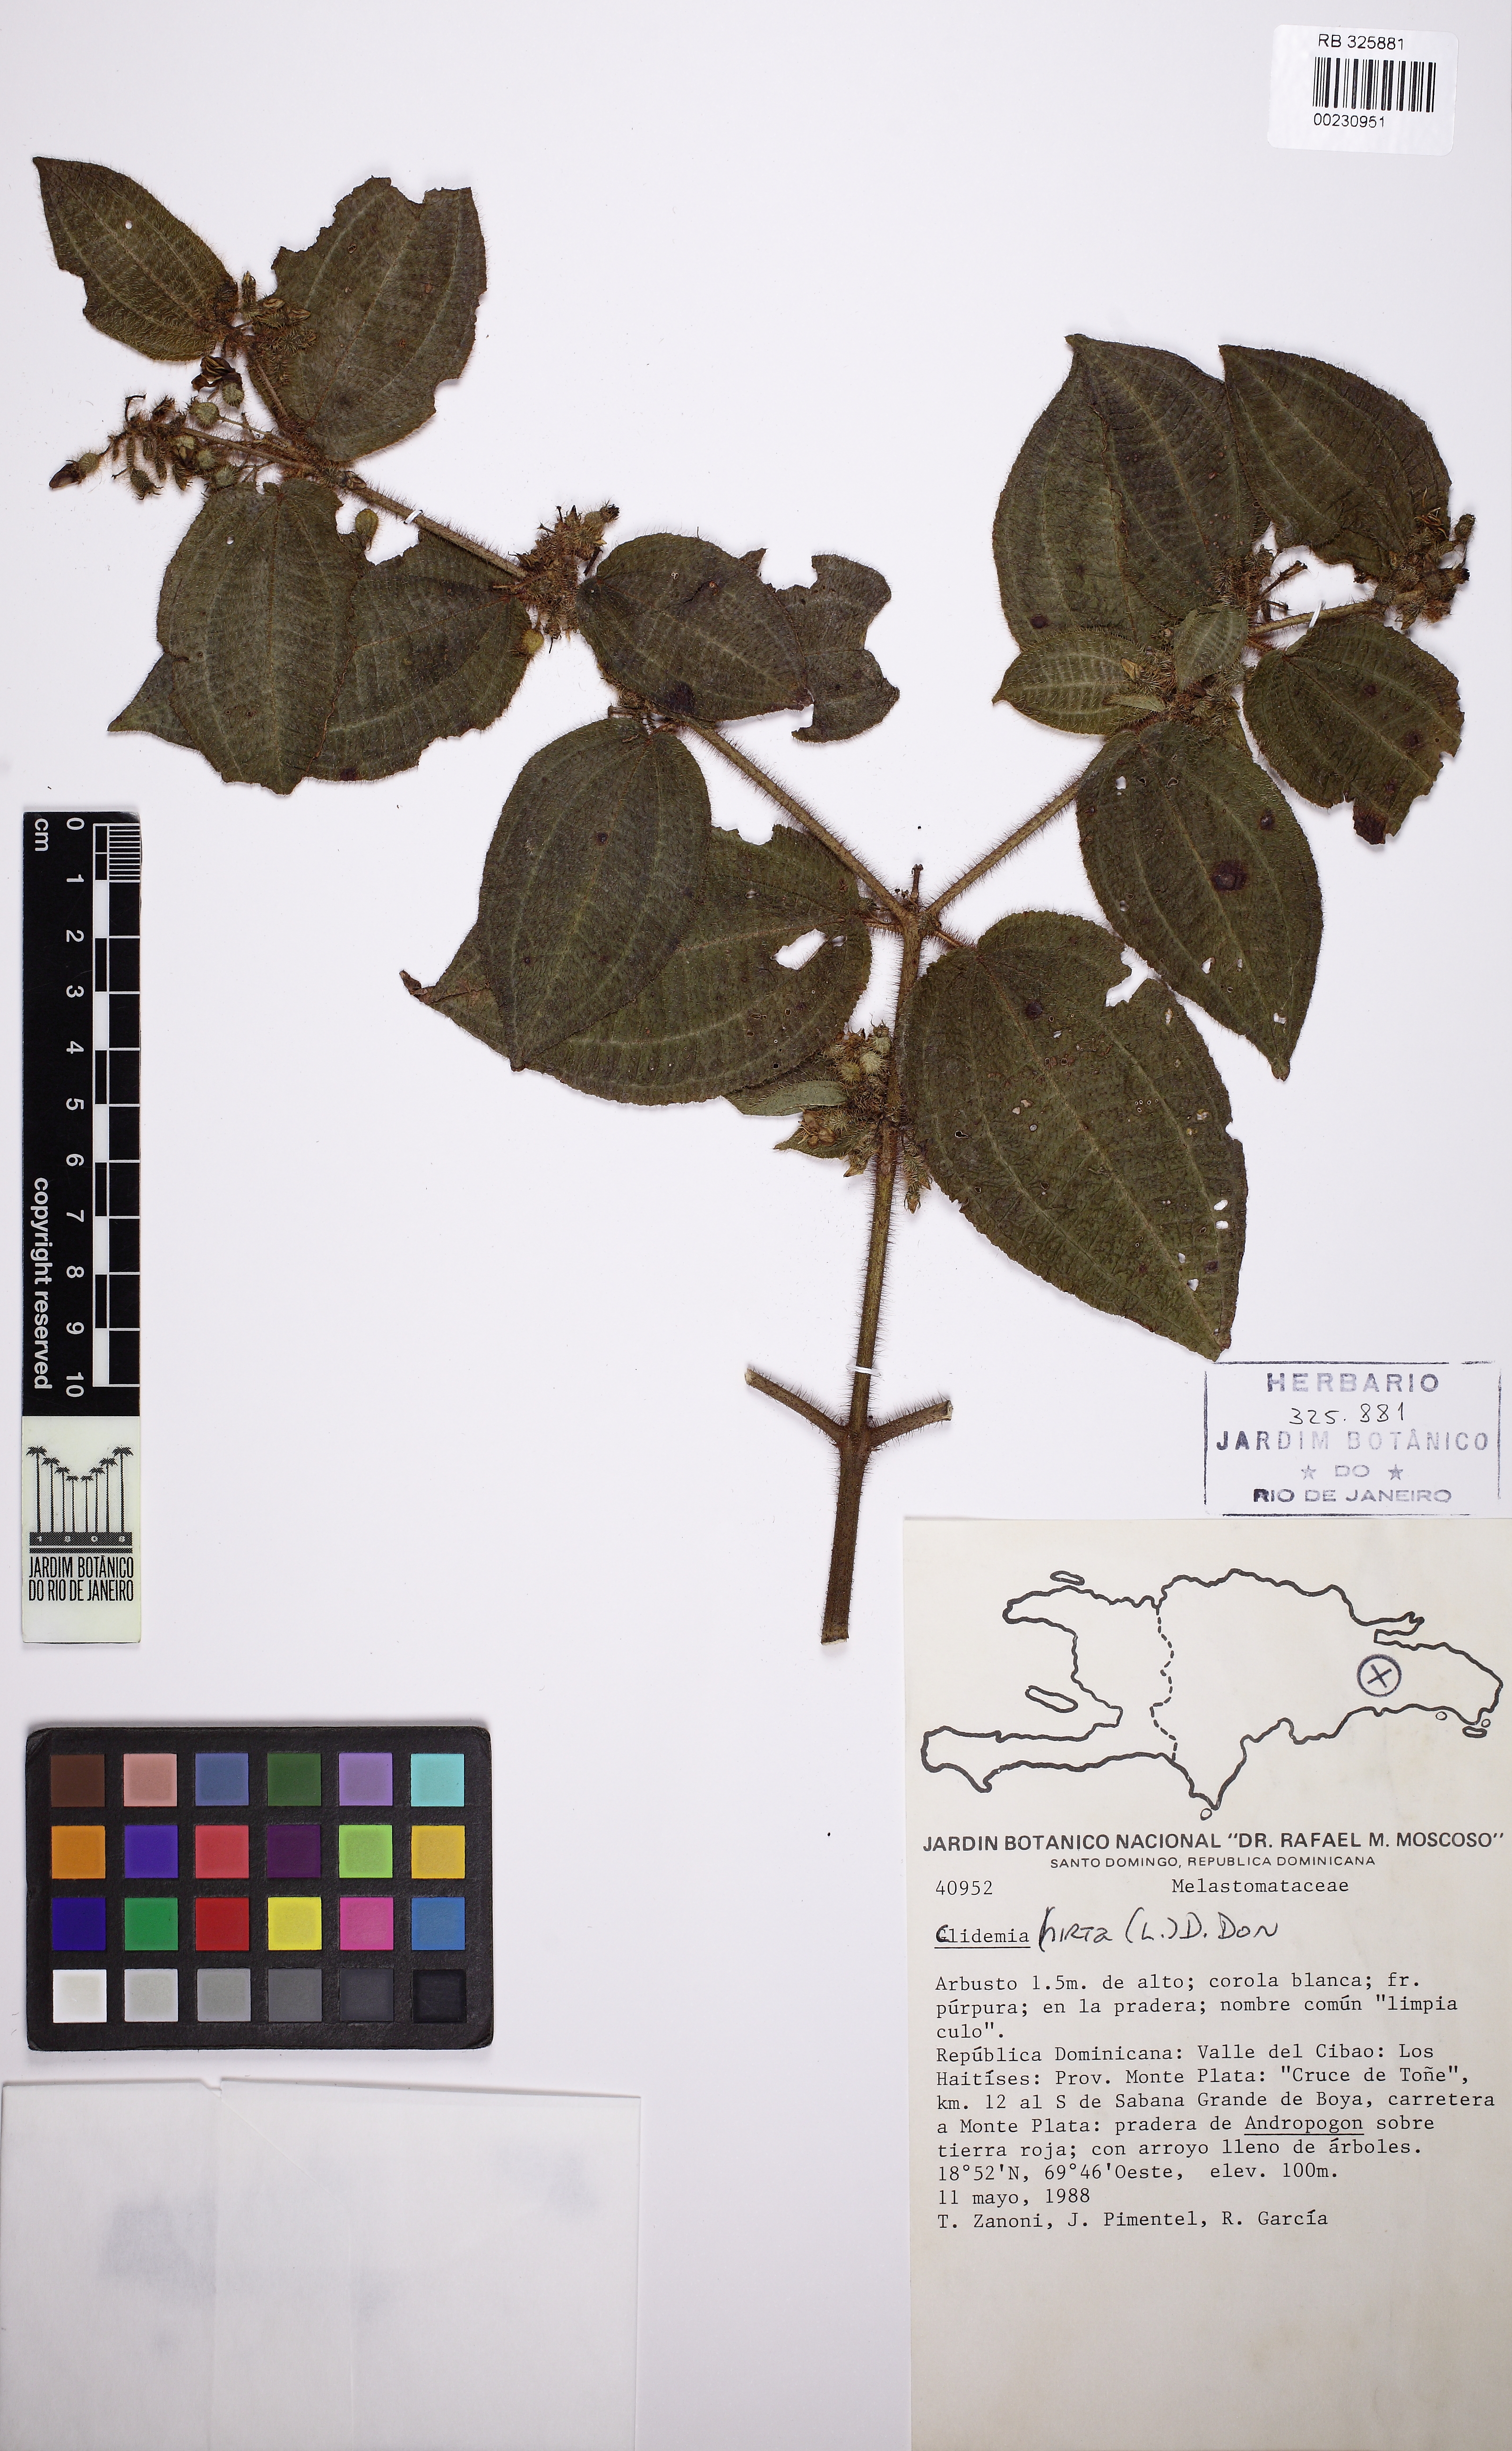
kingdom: Plantae
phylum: Tracheophyta
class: Magnoliopsida
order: Myrtales
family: Melastomataceae
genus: Miconia
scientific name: Miconia crenata
